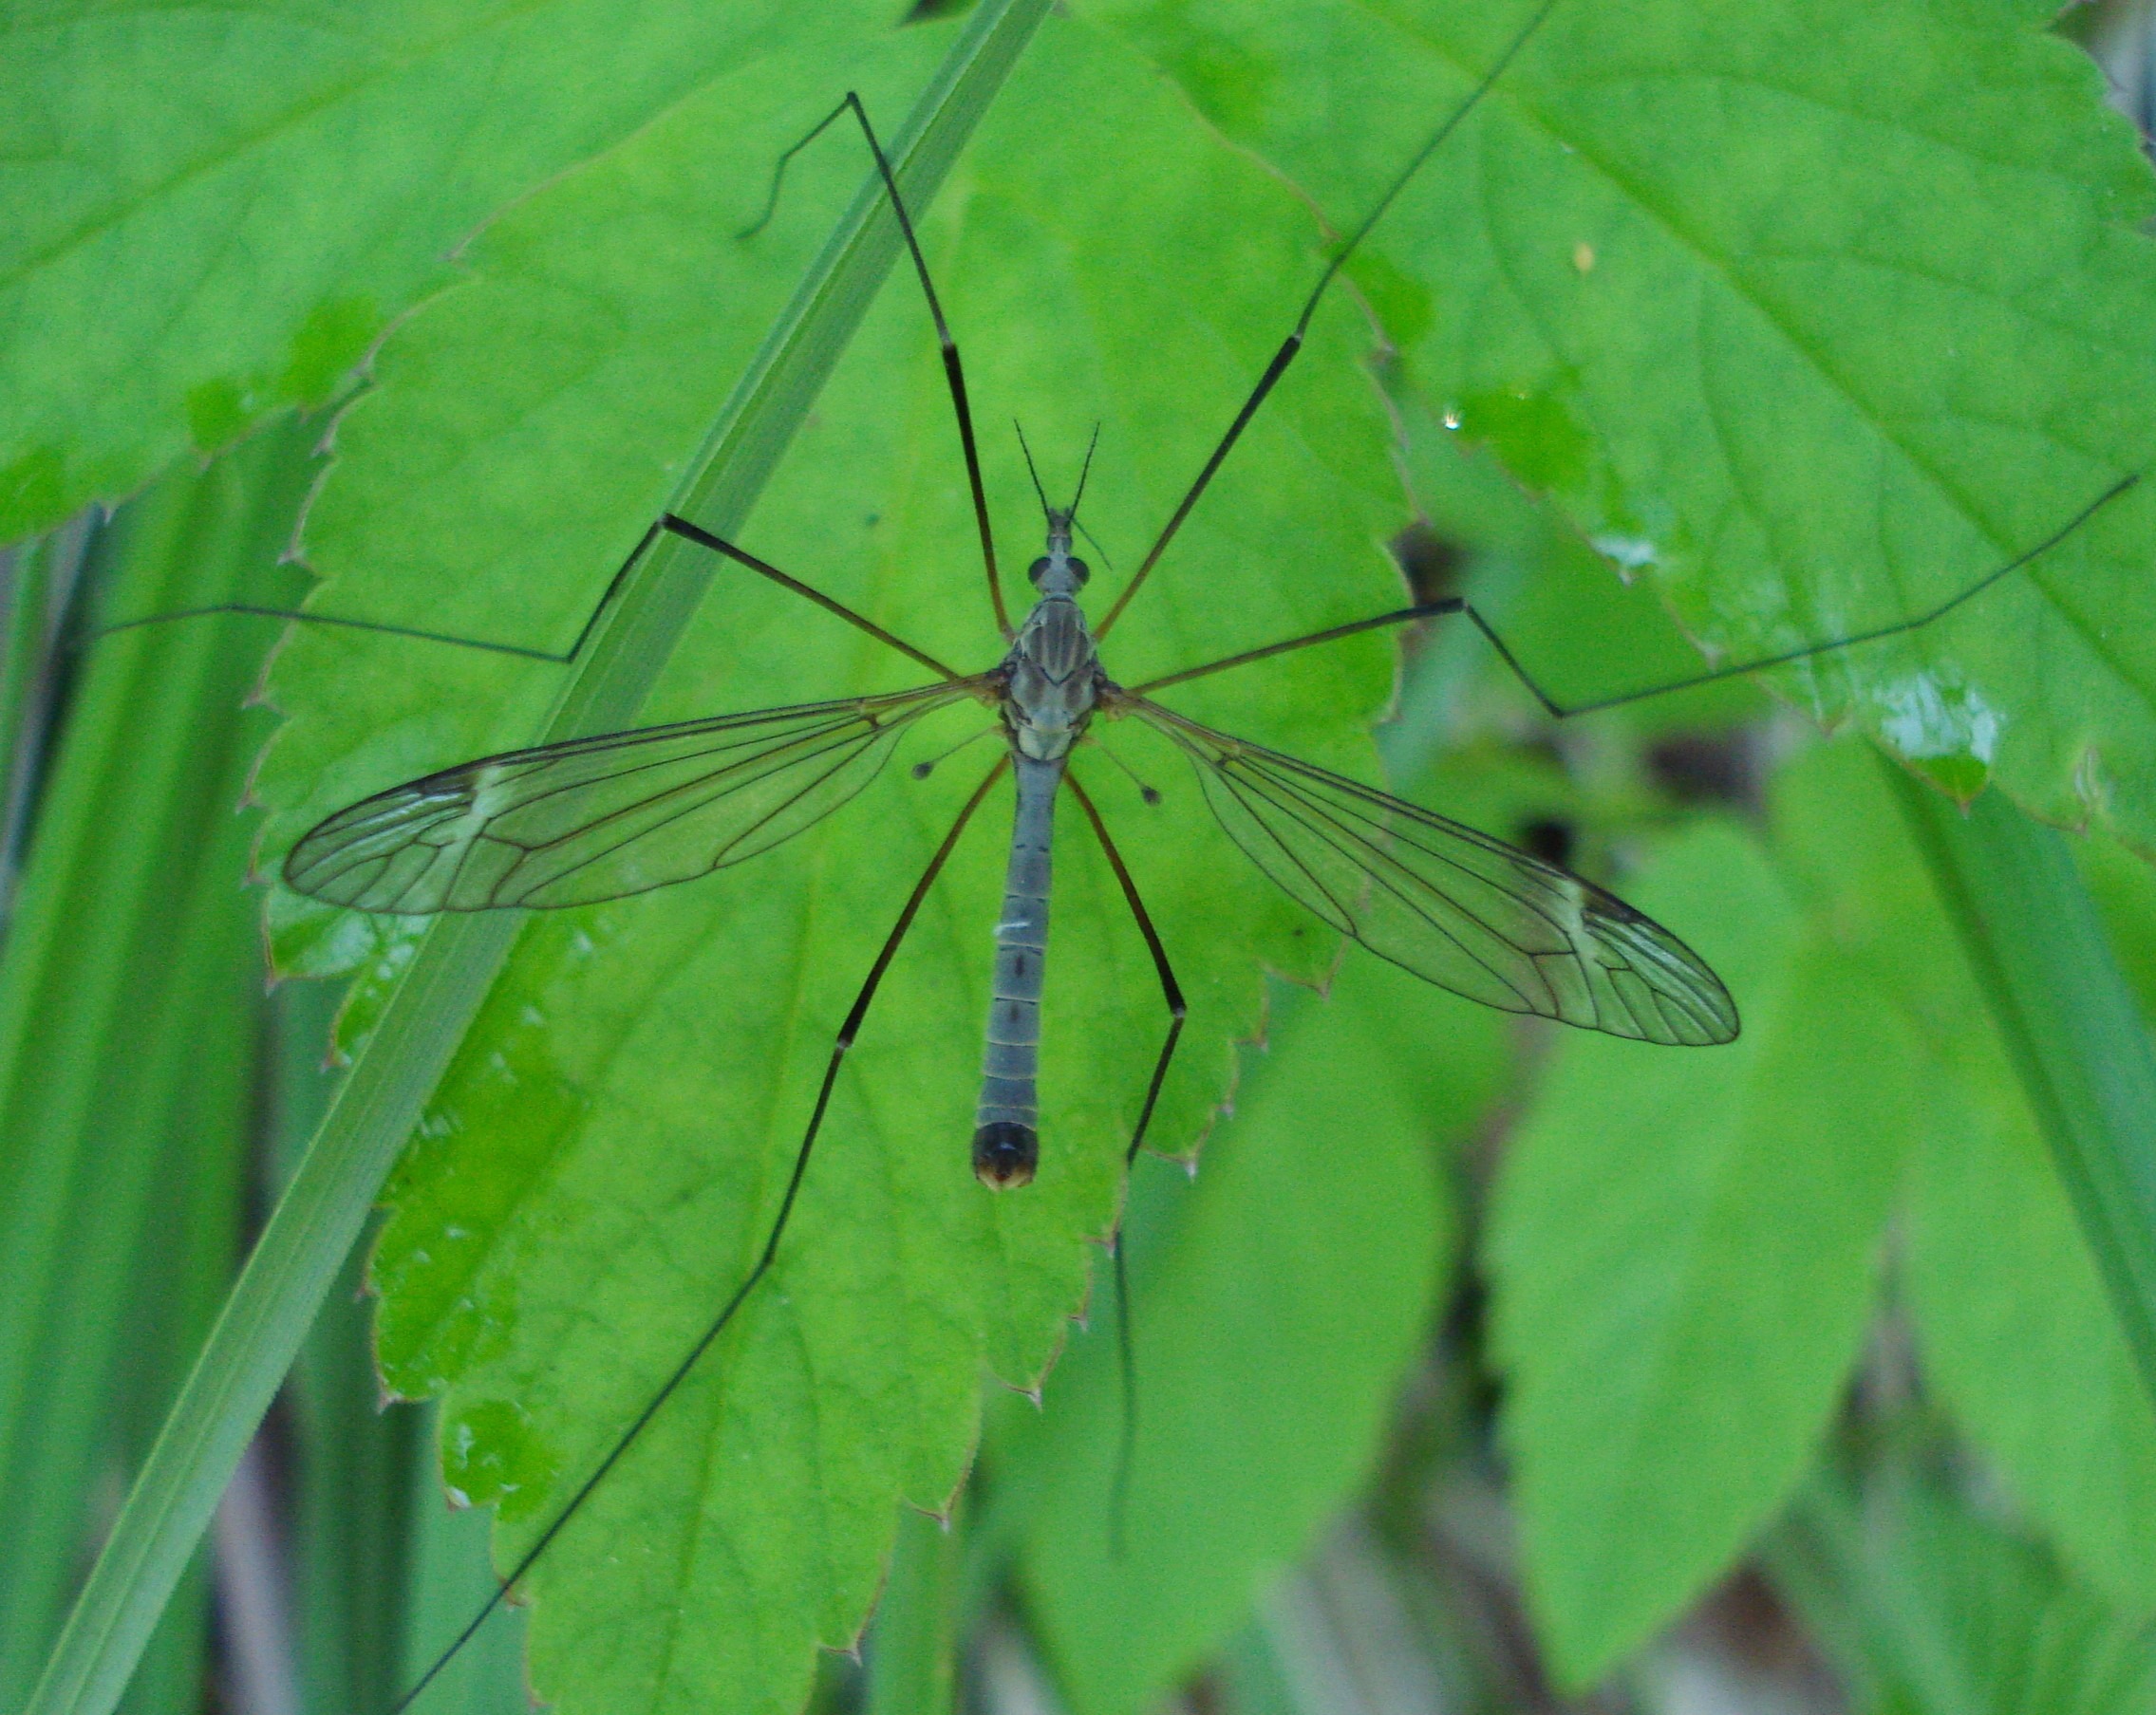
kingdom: Animalia
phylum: Arthropoda
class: Insecta
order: Diptera
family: Tipulidae
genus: Tipula
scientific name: Tipula luna
